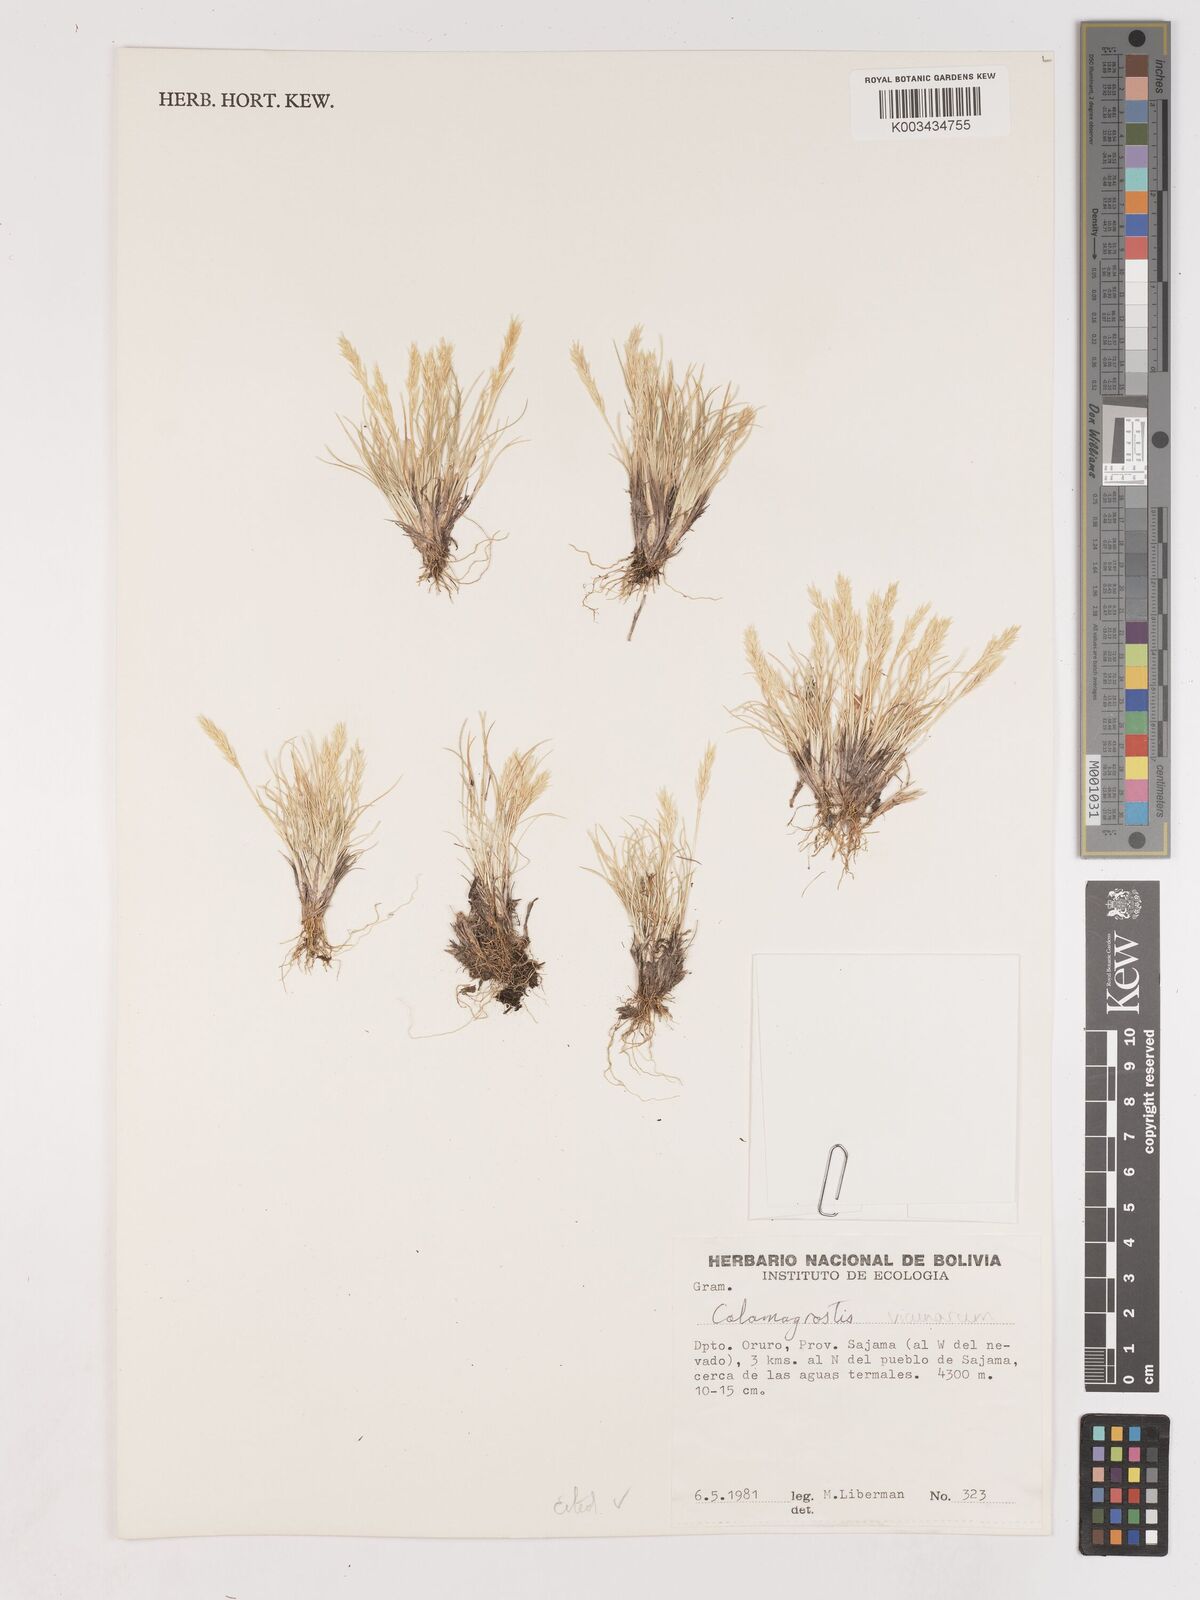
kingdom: Plantae
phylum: Tracheophyta
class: Liliopsida
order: Poales
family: Poaceae
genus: Cinnagrostis
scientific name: Cinnagrostis vicunarum
